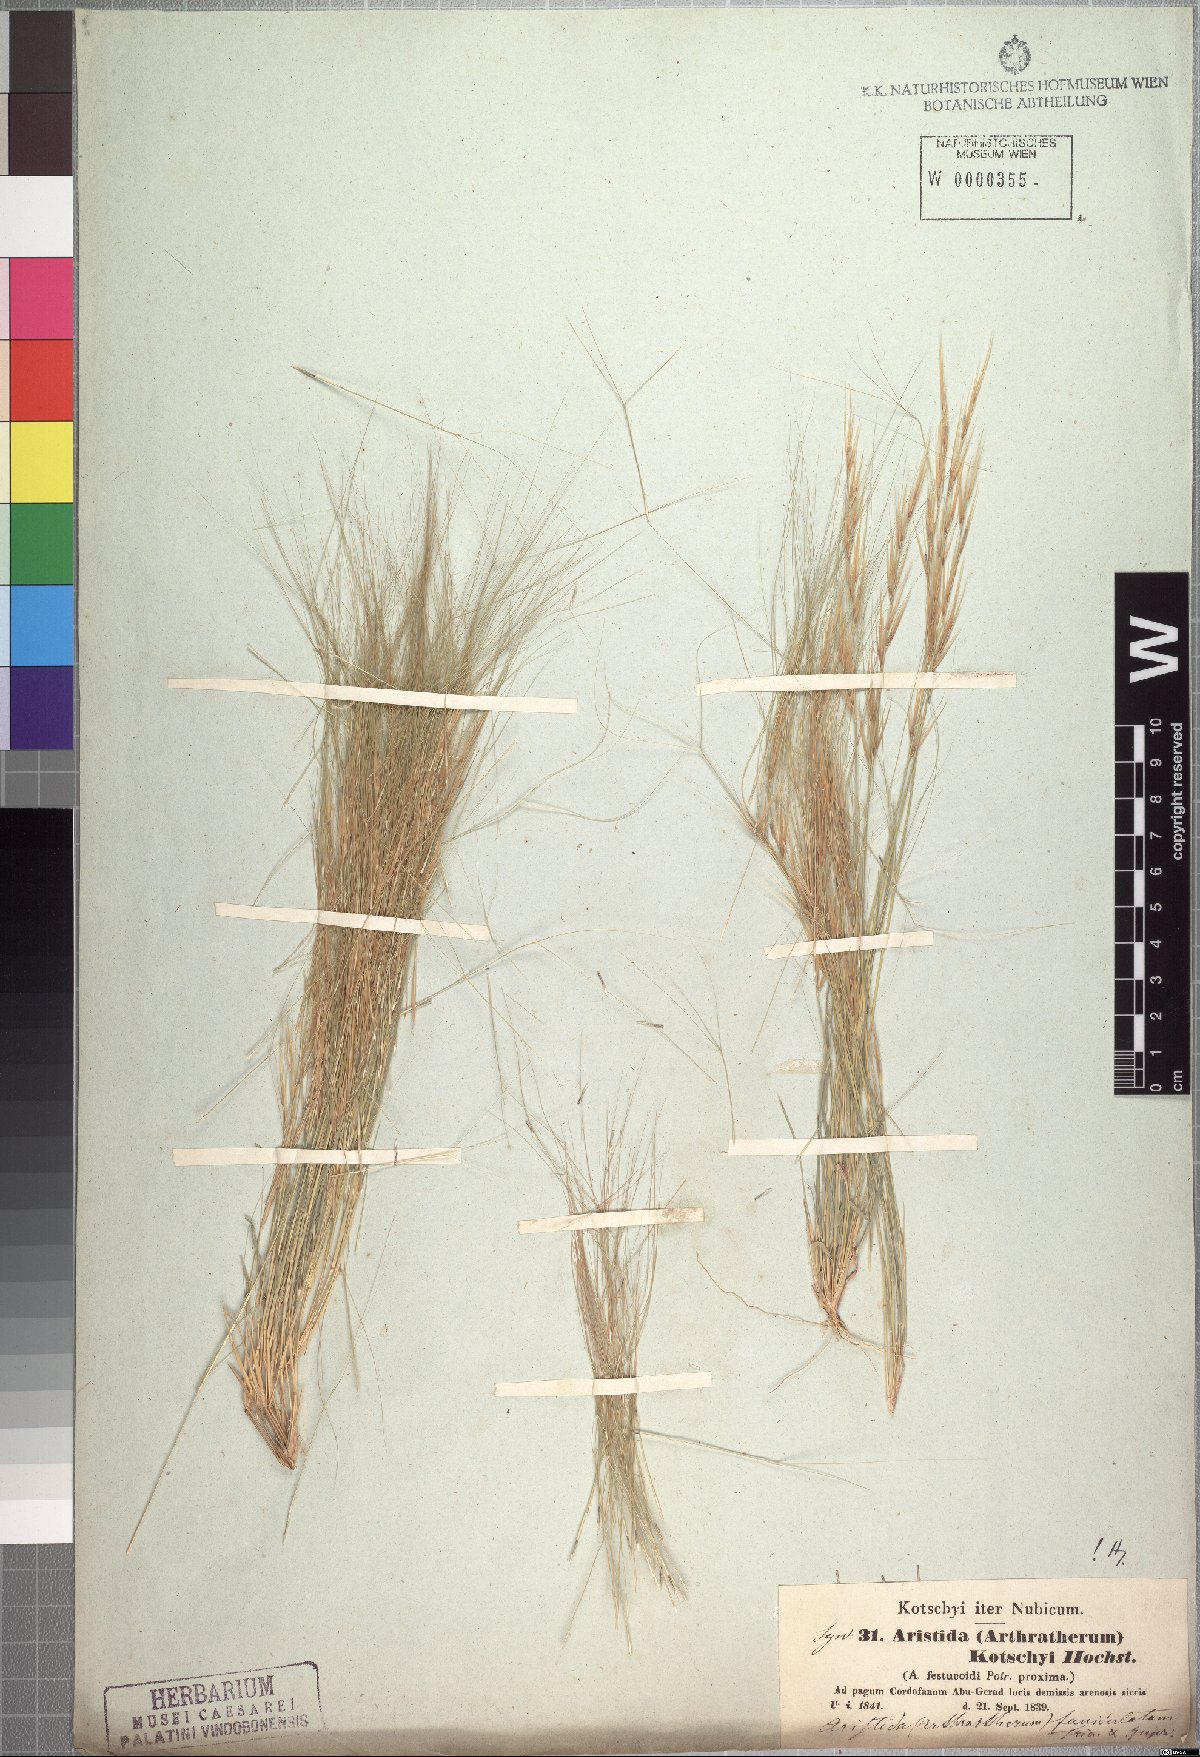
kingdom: Plantae
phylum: Tracheophyta
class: Liliopsida
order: Poales
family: Poaceae
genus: Aristida
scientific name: Aristida funiculata
